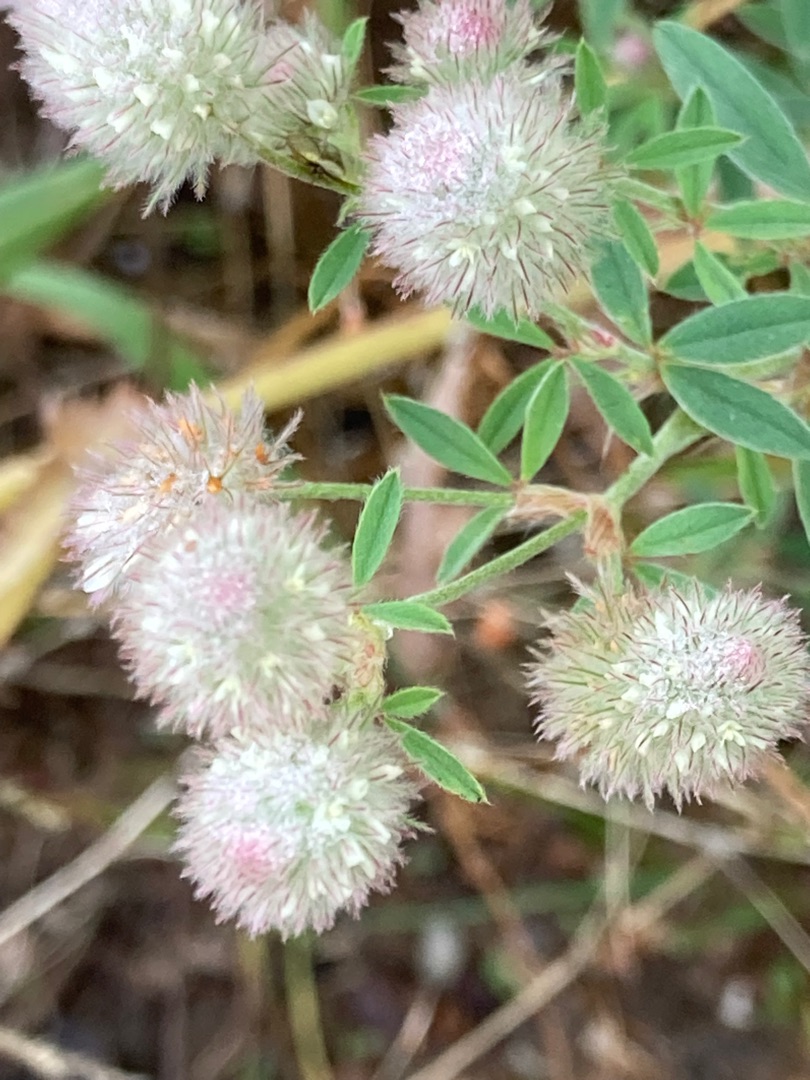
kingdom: Plantae
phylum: Tracheophyta
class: Magnoliopsida
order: Fabales
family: Fabaceae
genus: Trifolium
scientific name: Trifolium arvense
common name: Hare-kløver
